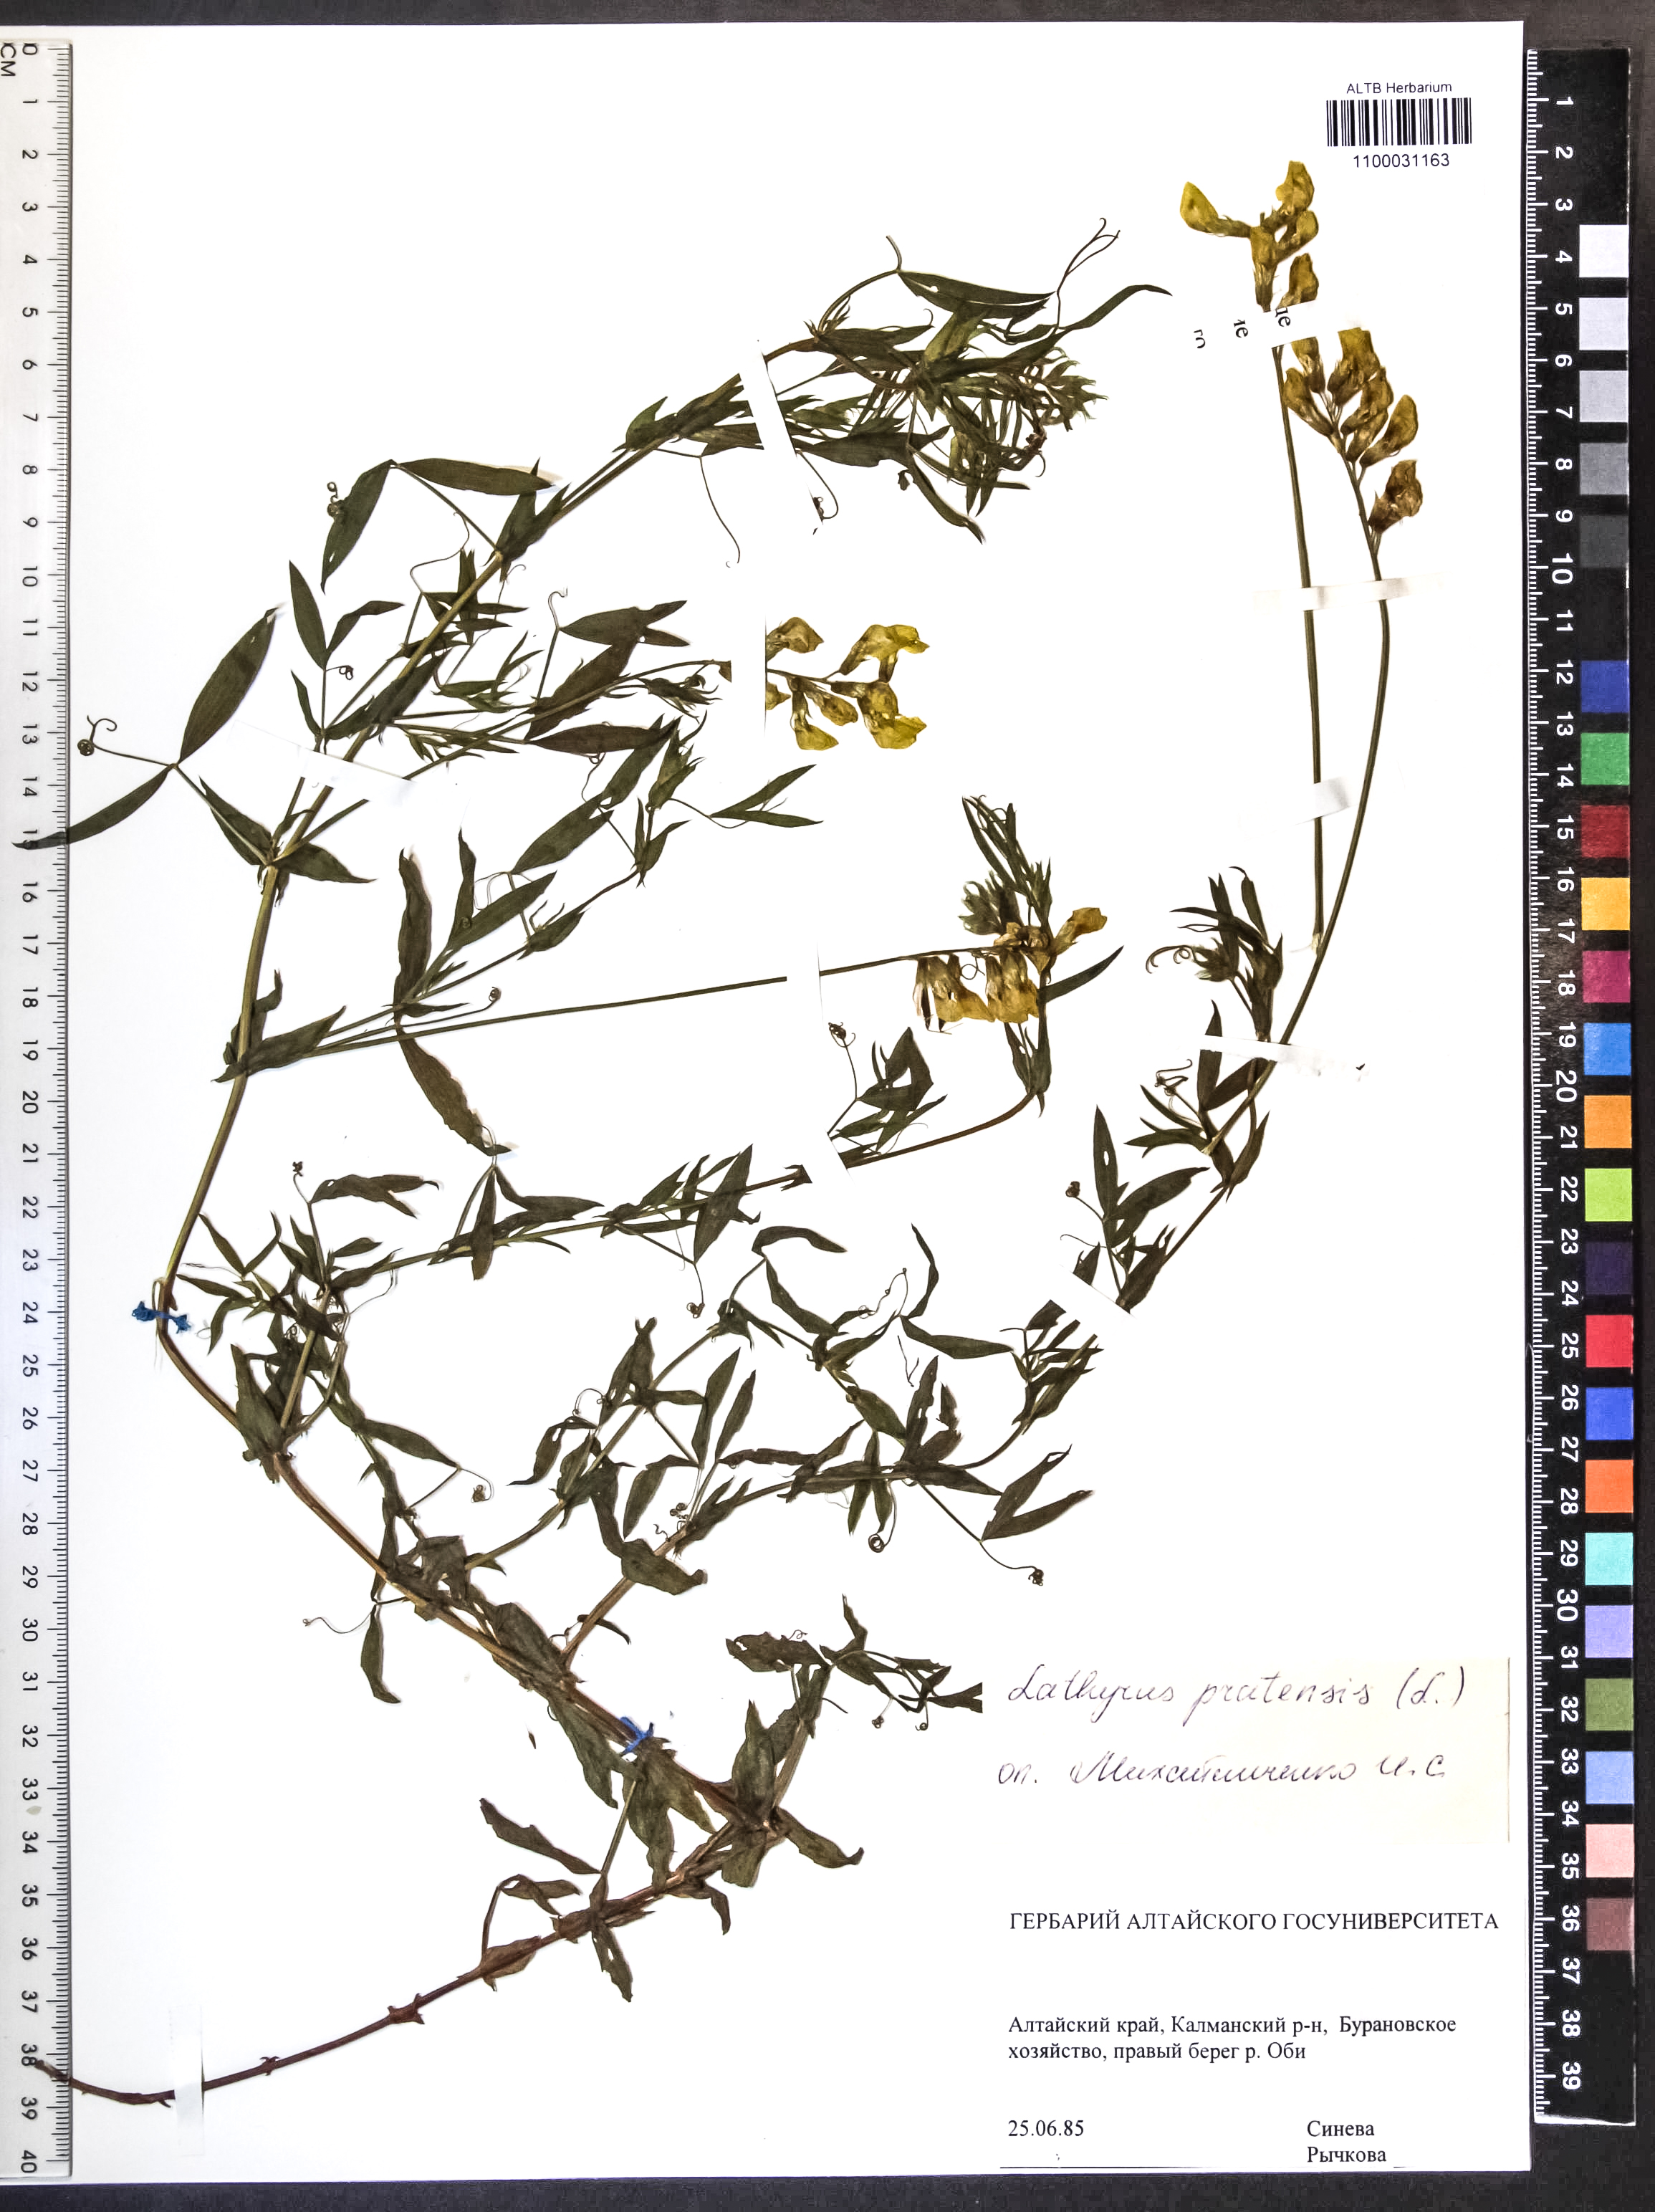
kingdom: Plantae
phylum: Tracheophyta
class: Magnoliopsida
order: Fabales
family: Fabaceae
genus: Lathyrus
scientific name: Lathyrus pratensis
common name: Meadow vetchling
